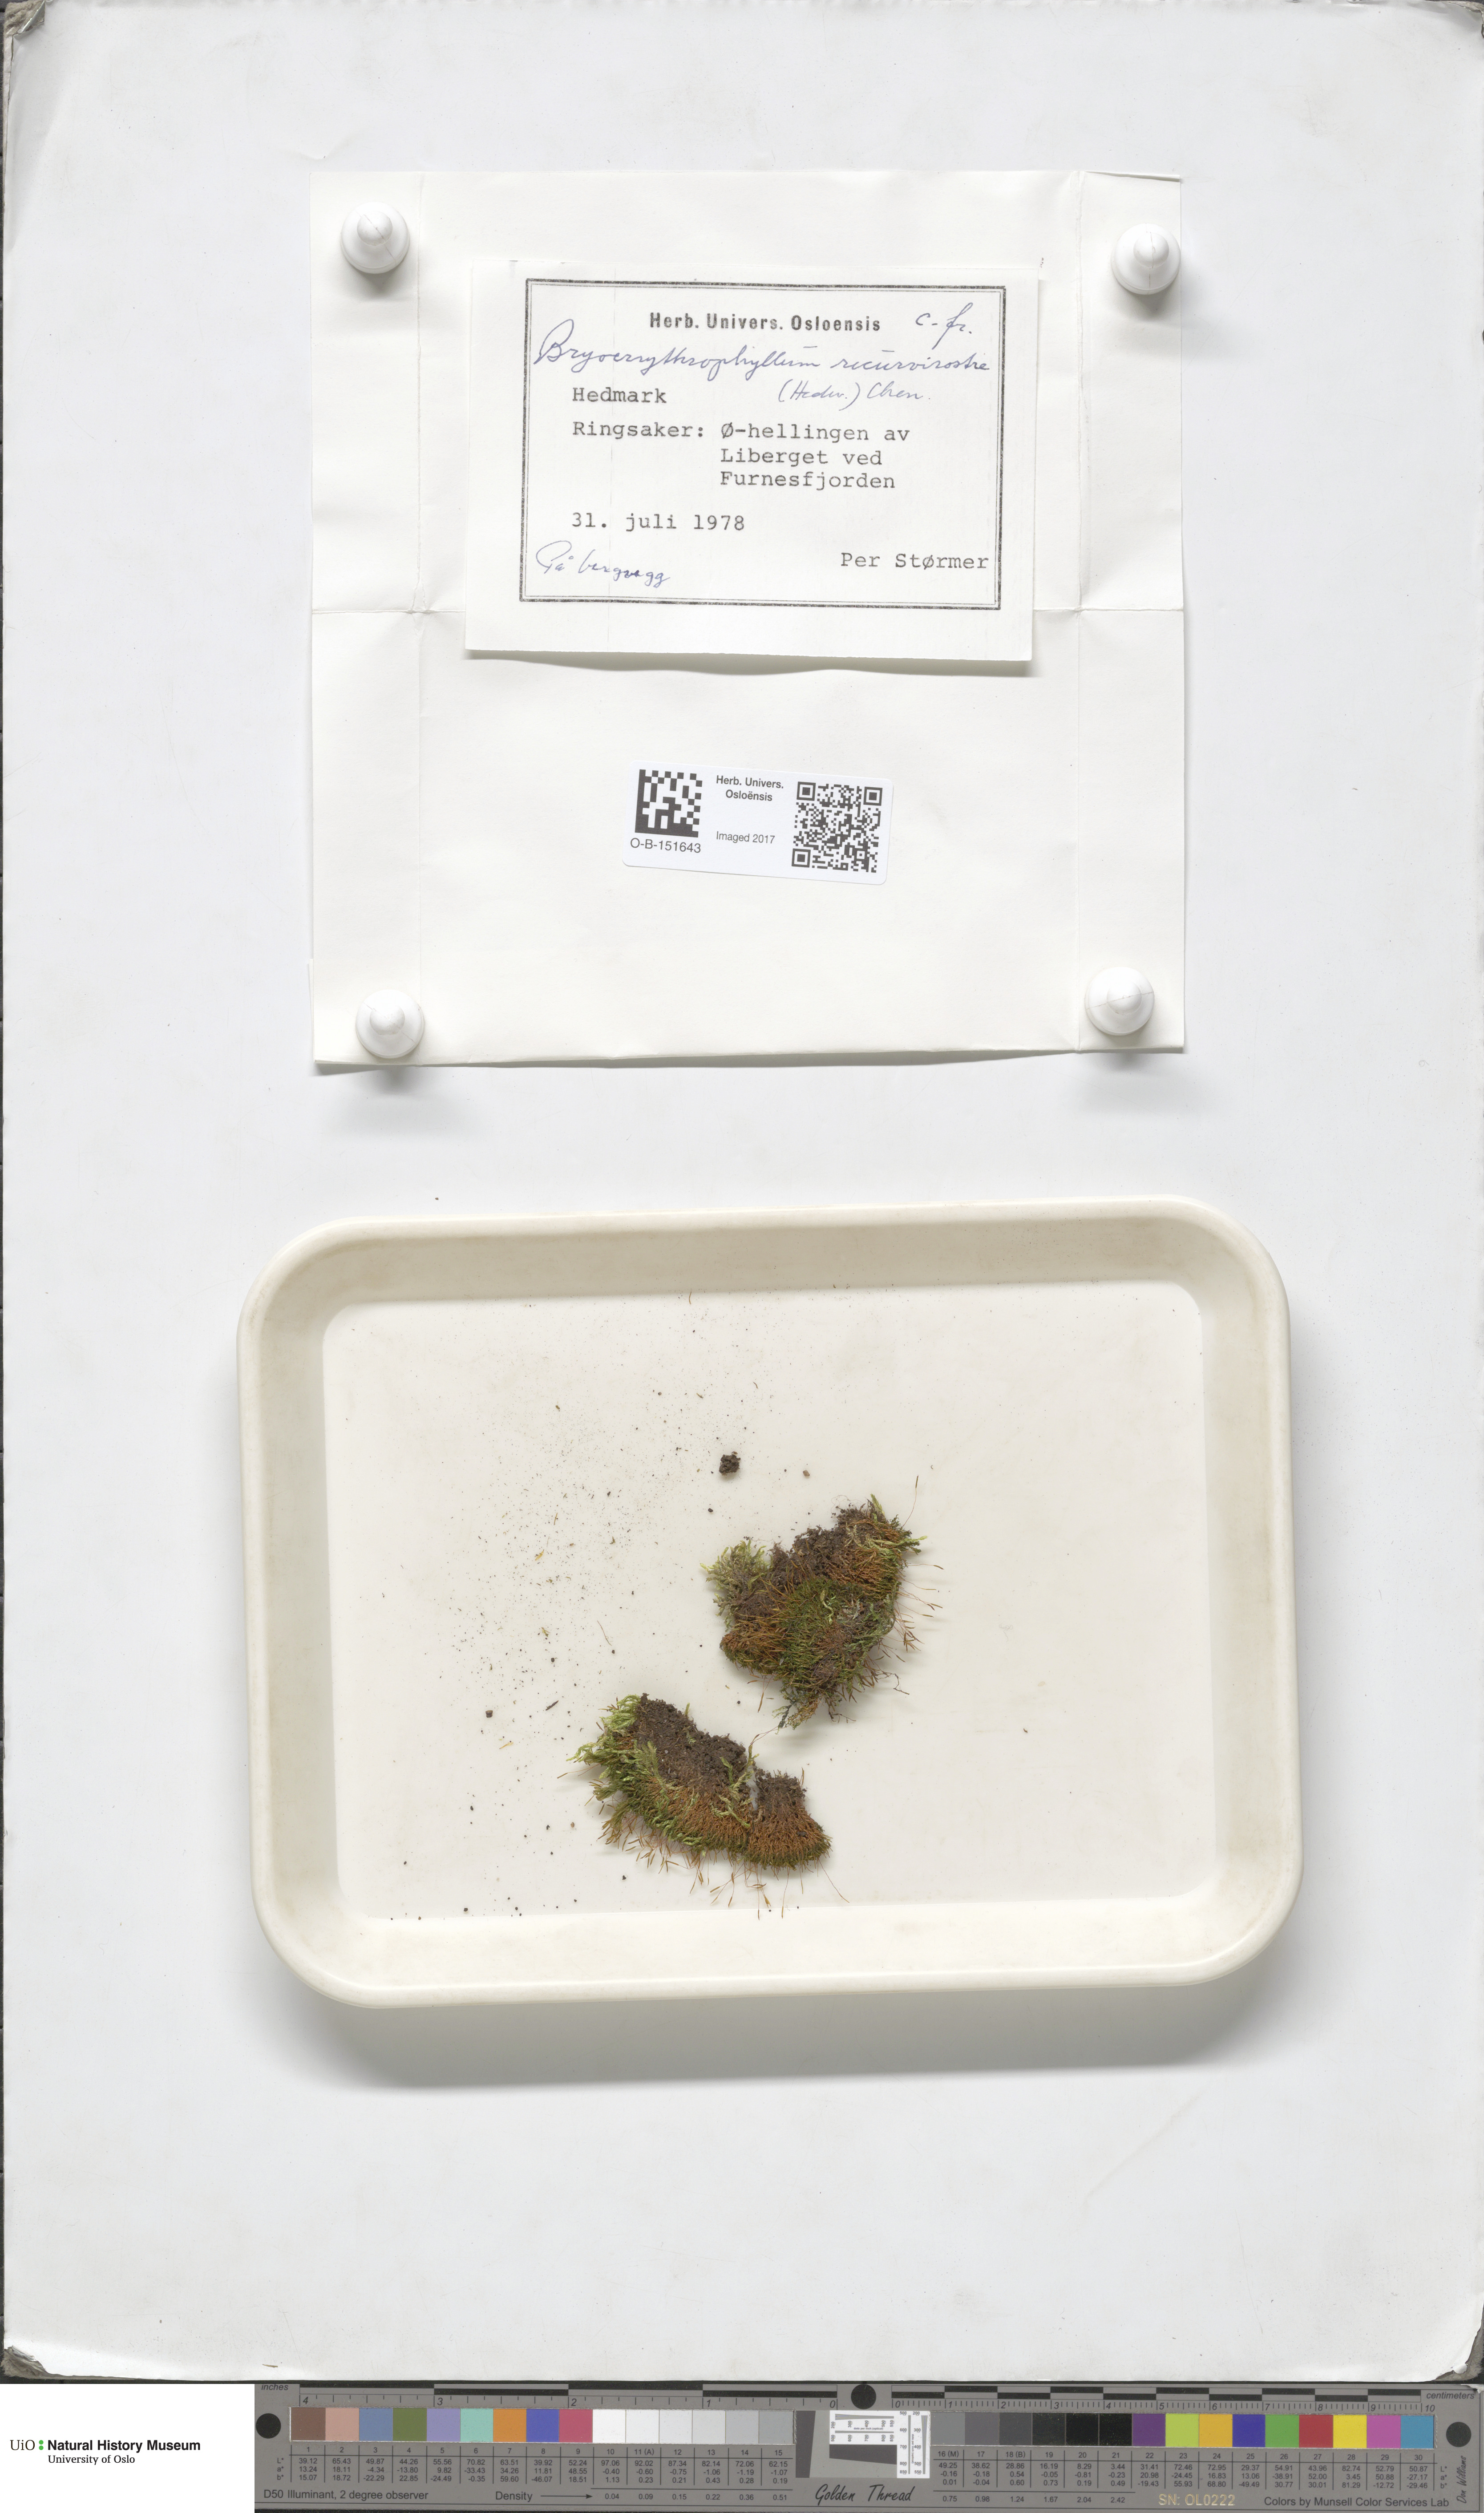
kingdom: Plantae
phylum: Bryophyta
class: Bryopsida
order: Pottiales
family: Pottiaceae
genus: Bryoerythrophyllum
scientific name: Bryoerythrophyllum recurvirostrum
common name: Red beard moss
